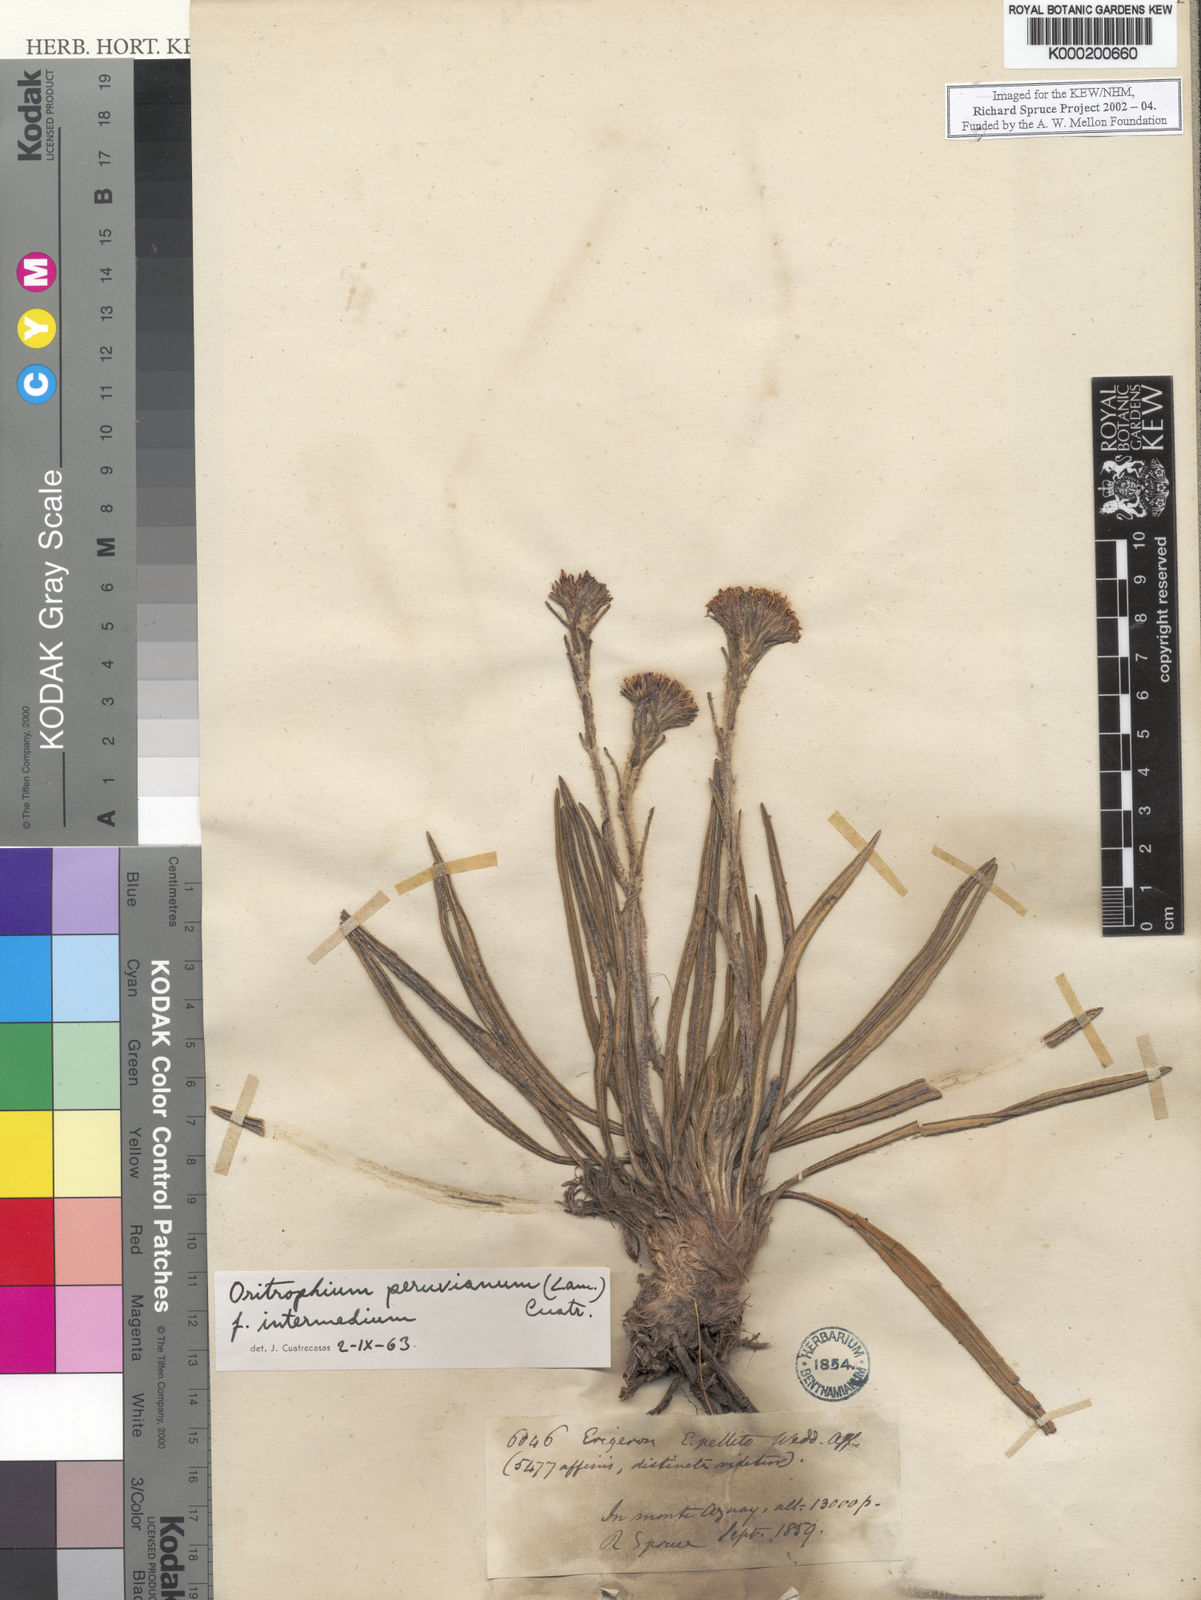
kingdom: Plantae
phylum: Tracheophyta
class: Magnoliopsida
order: Asterales
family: Asteraceae
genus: Oritrophium
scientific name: Oritrophium peruvianum
